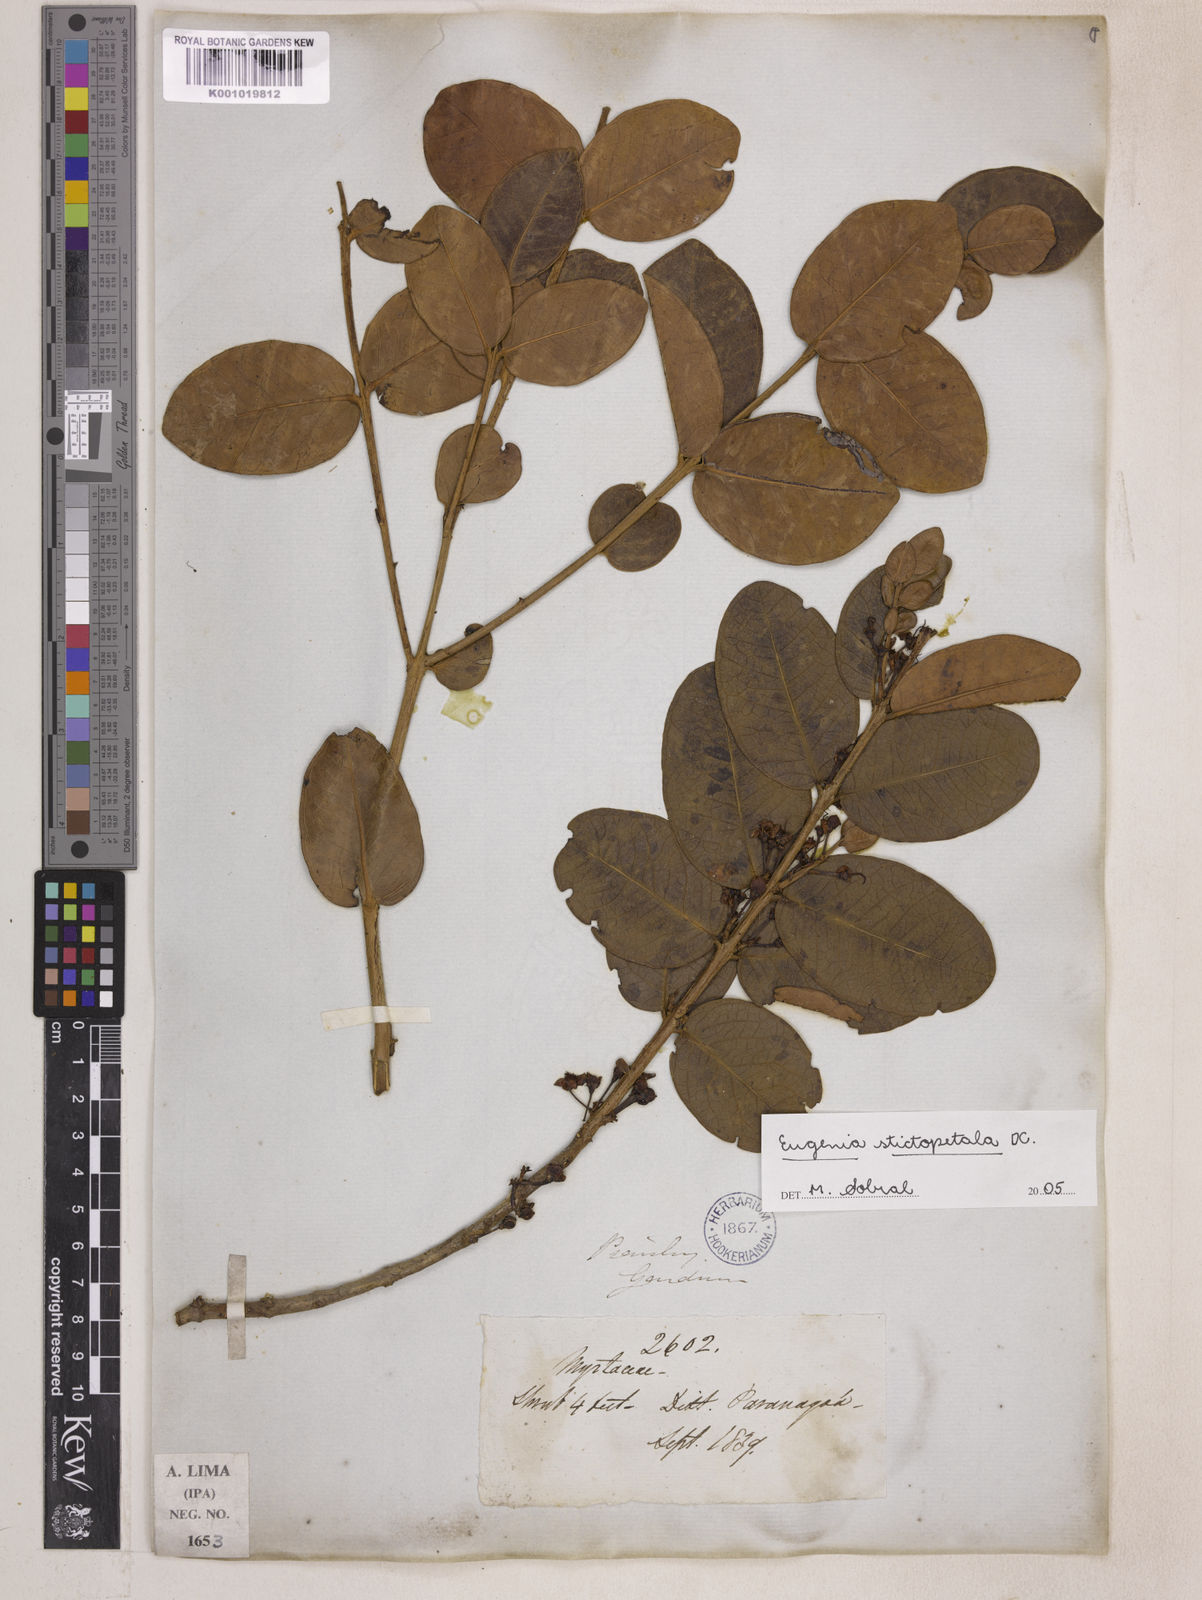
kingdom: Plantae
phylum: Tracheophyta
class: Magnoliopsida
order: Myrtales
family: Myrtaceae
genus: Eugenia
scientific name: Eugenia stictopetala
